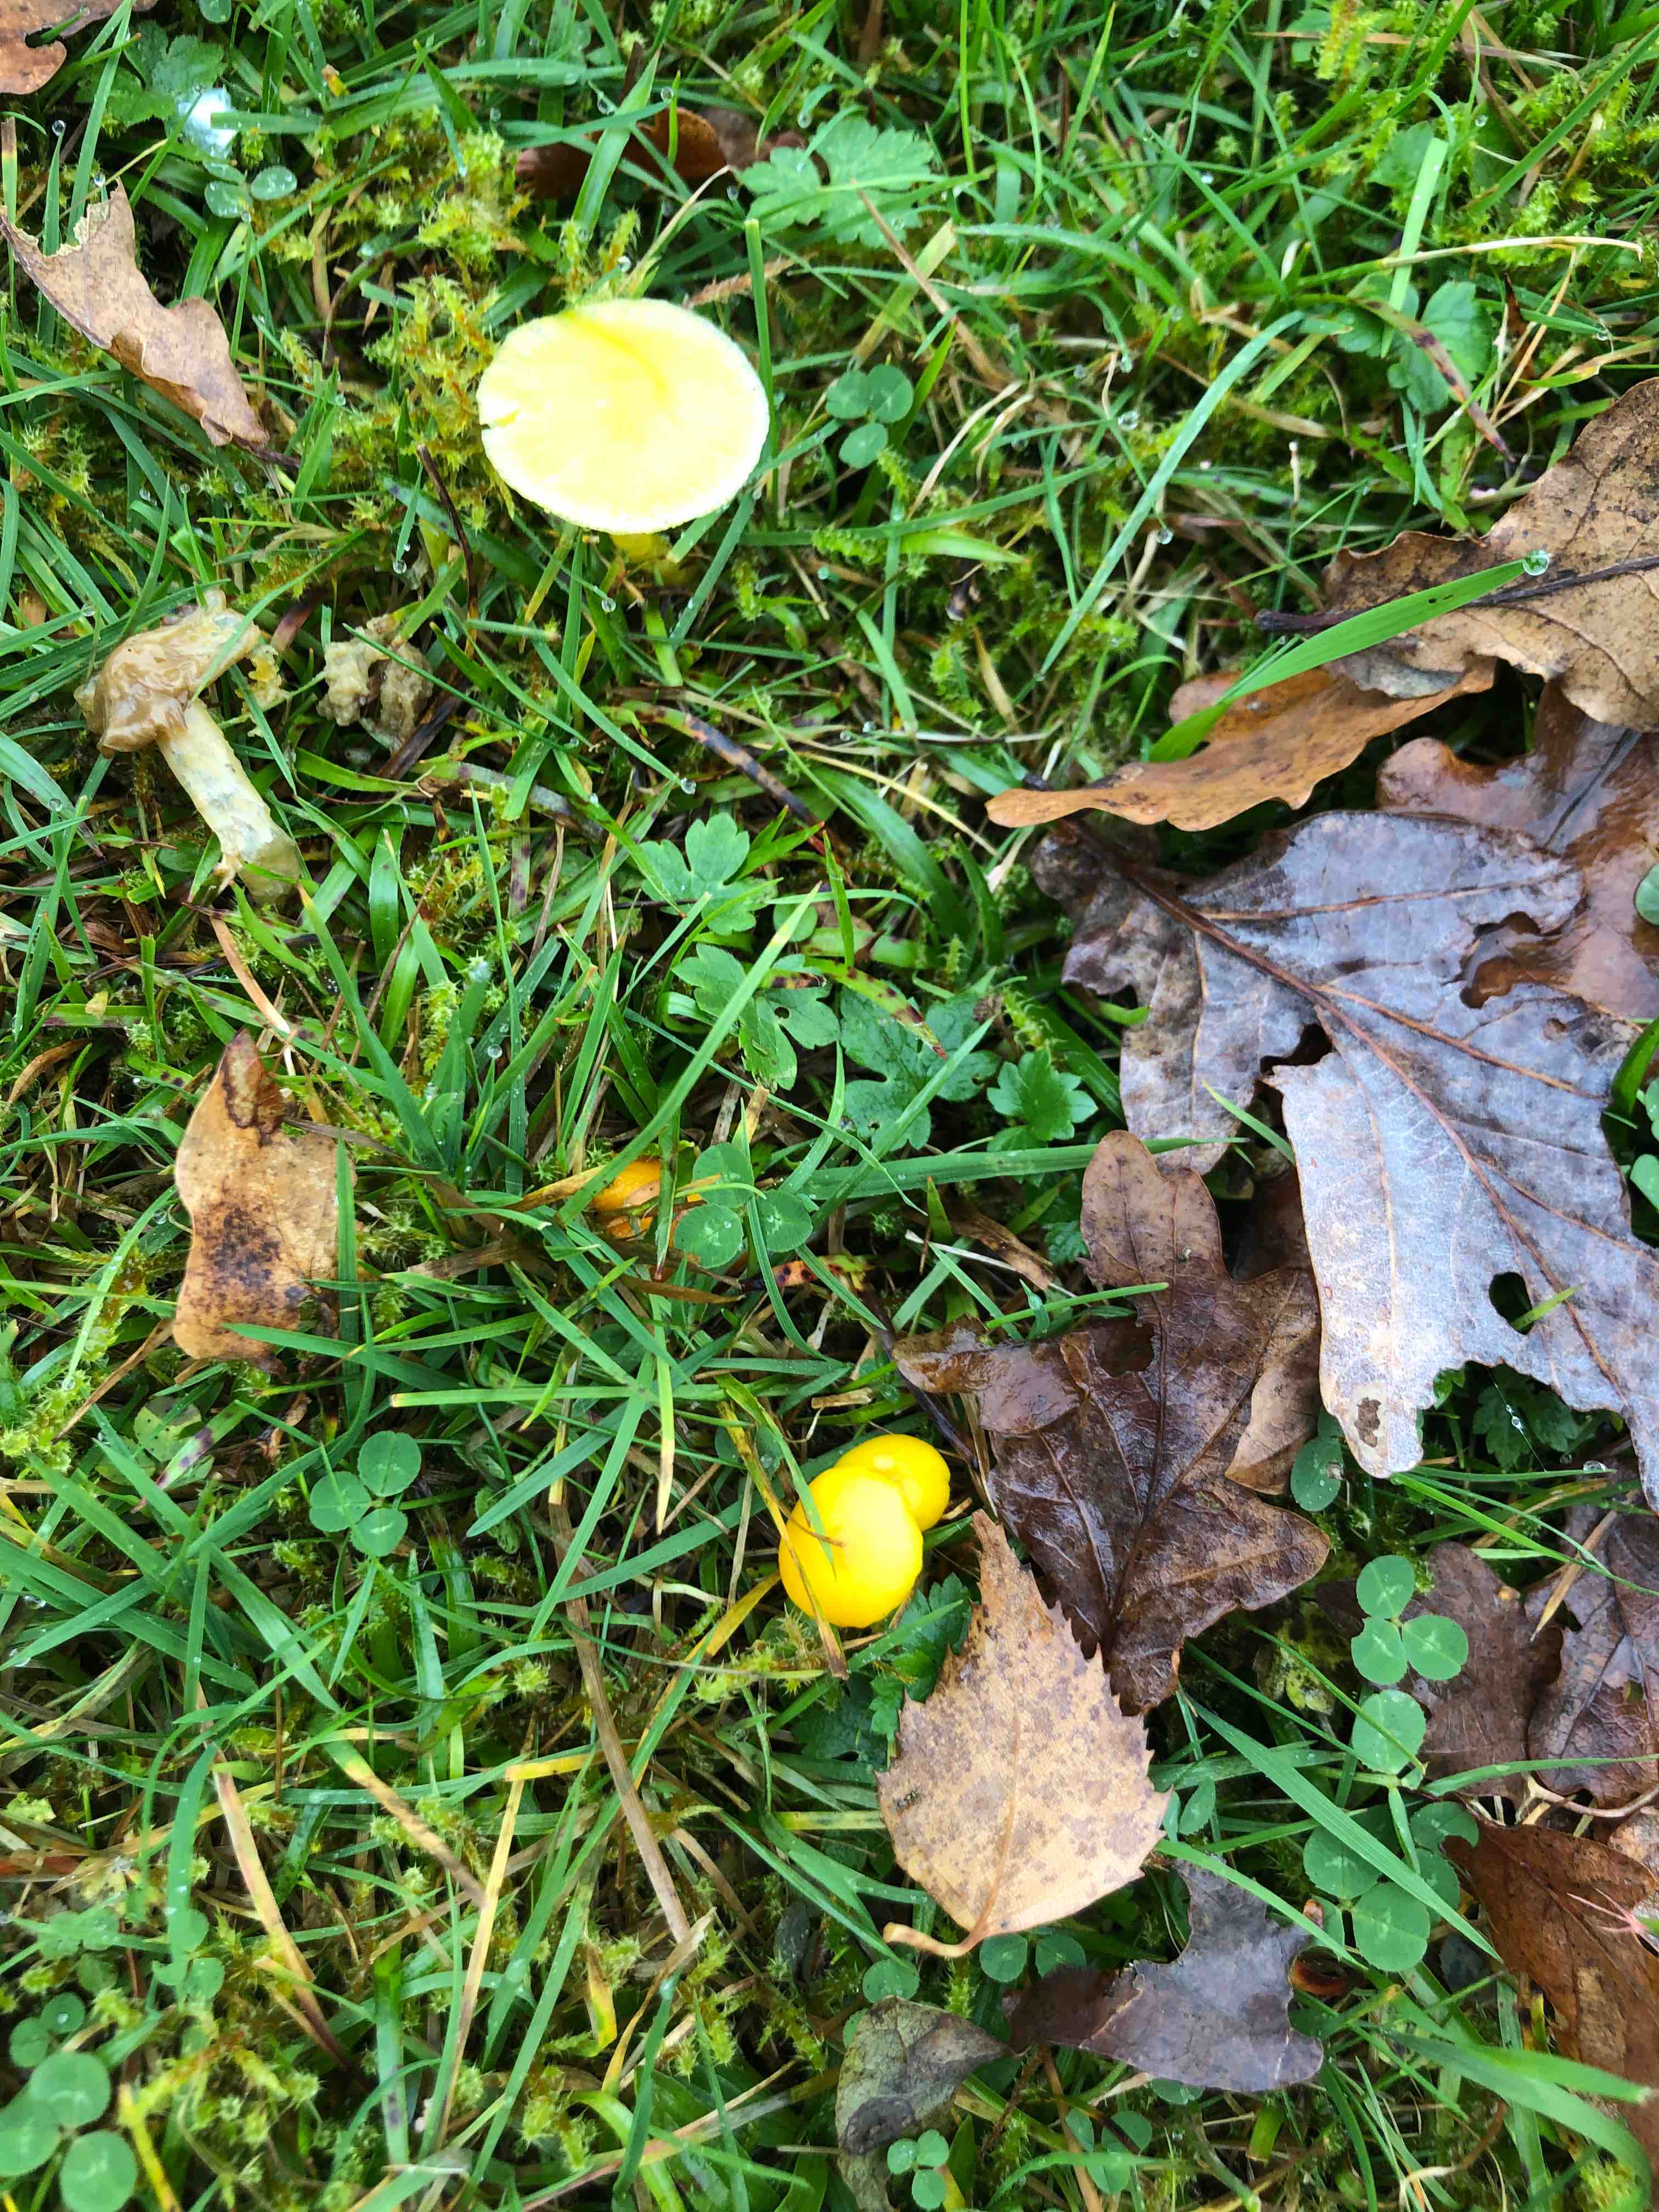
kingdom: Fungi
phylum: Basidiomycota
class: Agaricomycetes
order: Agaricales
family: Hygrophoraceae
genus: Hygrocybe
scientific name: Hygrocybe
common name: vokshat
